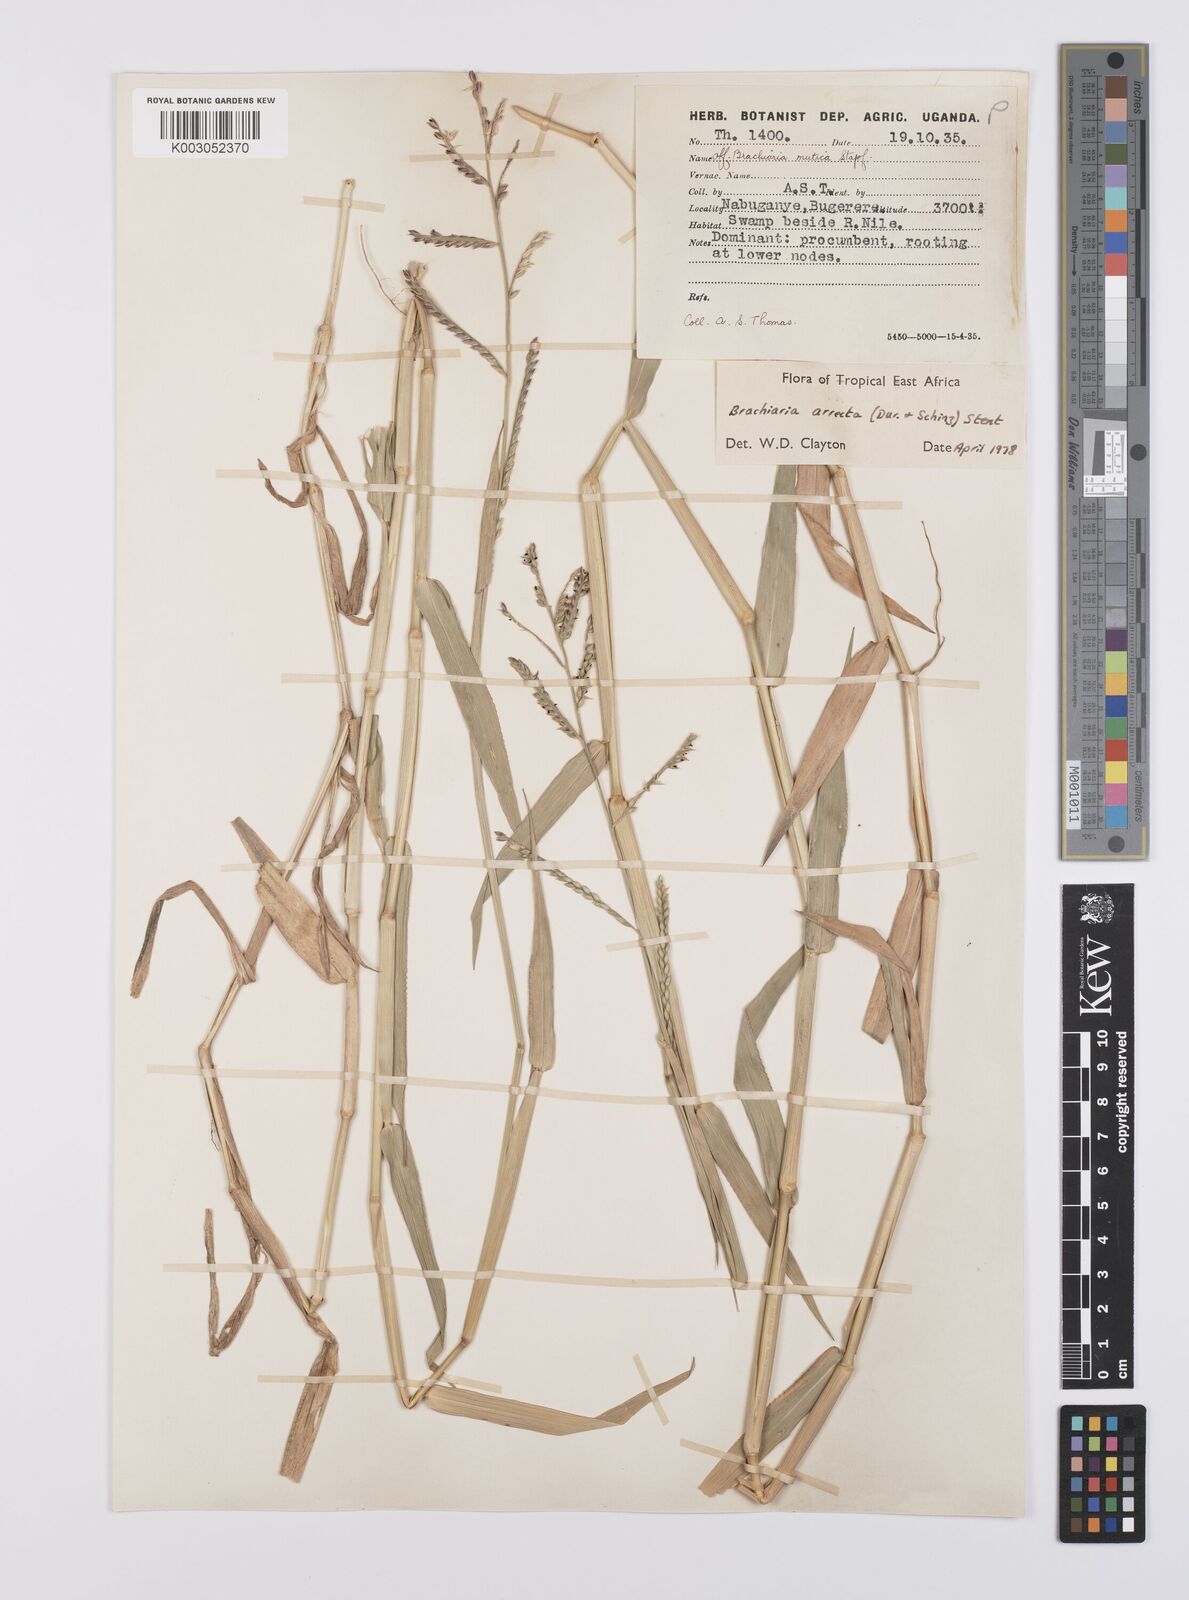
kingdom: Plantae
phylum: Tracheophyta
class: Liliopsida
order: Poales
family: Poaceae
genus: Urochloa
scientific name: Urochloa arrecta
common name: African signalgrass
